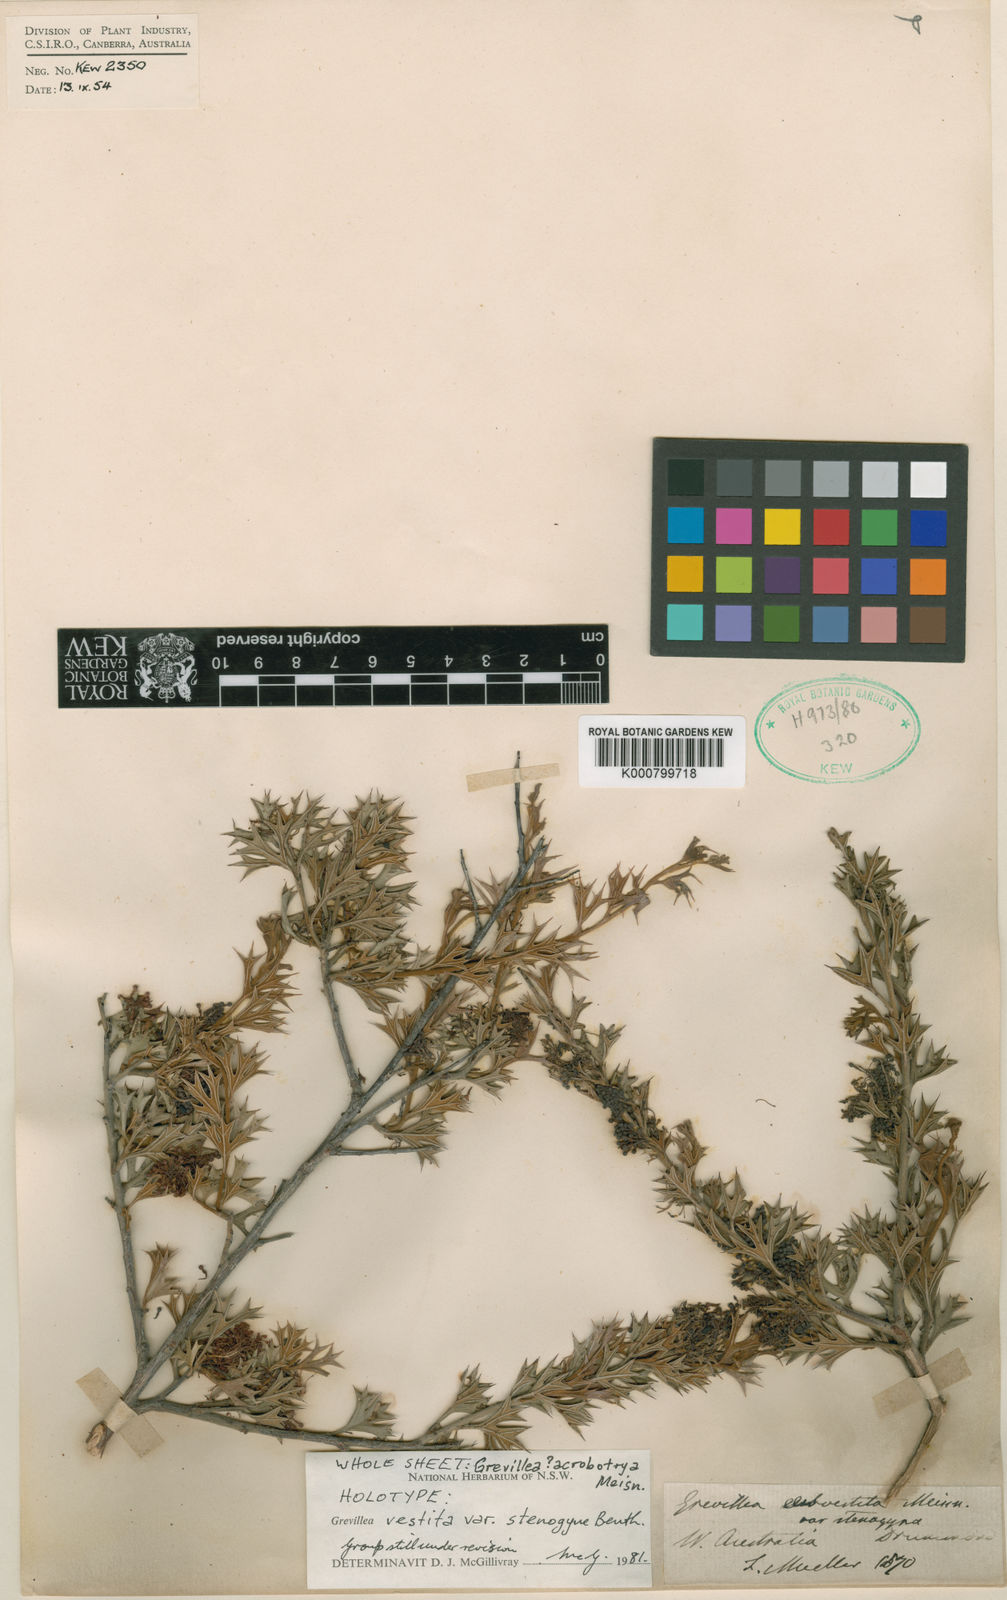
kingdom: Plantae
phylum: Tracheophyta
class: Magnoliopsida
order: Proteales
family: Proteaceae
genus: Grevillea
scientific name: Grevillea stenogyne
